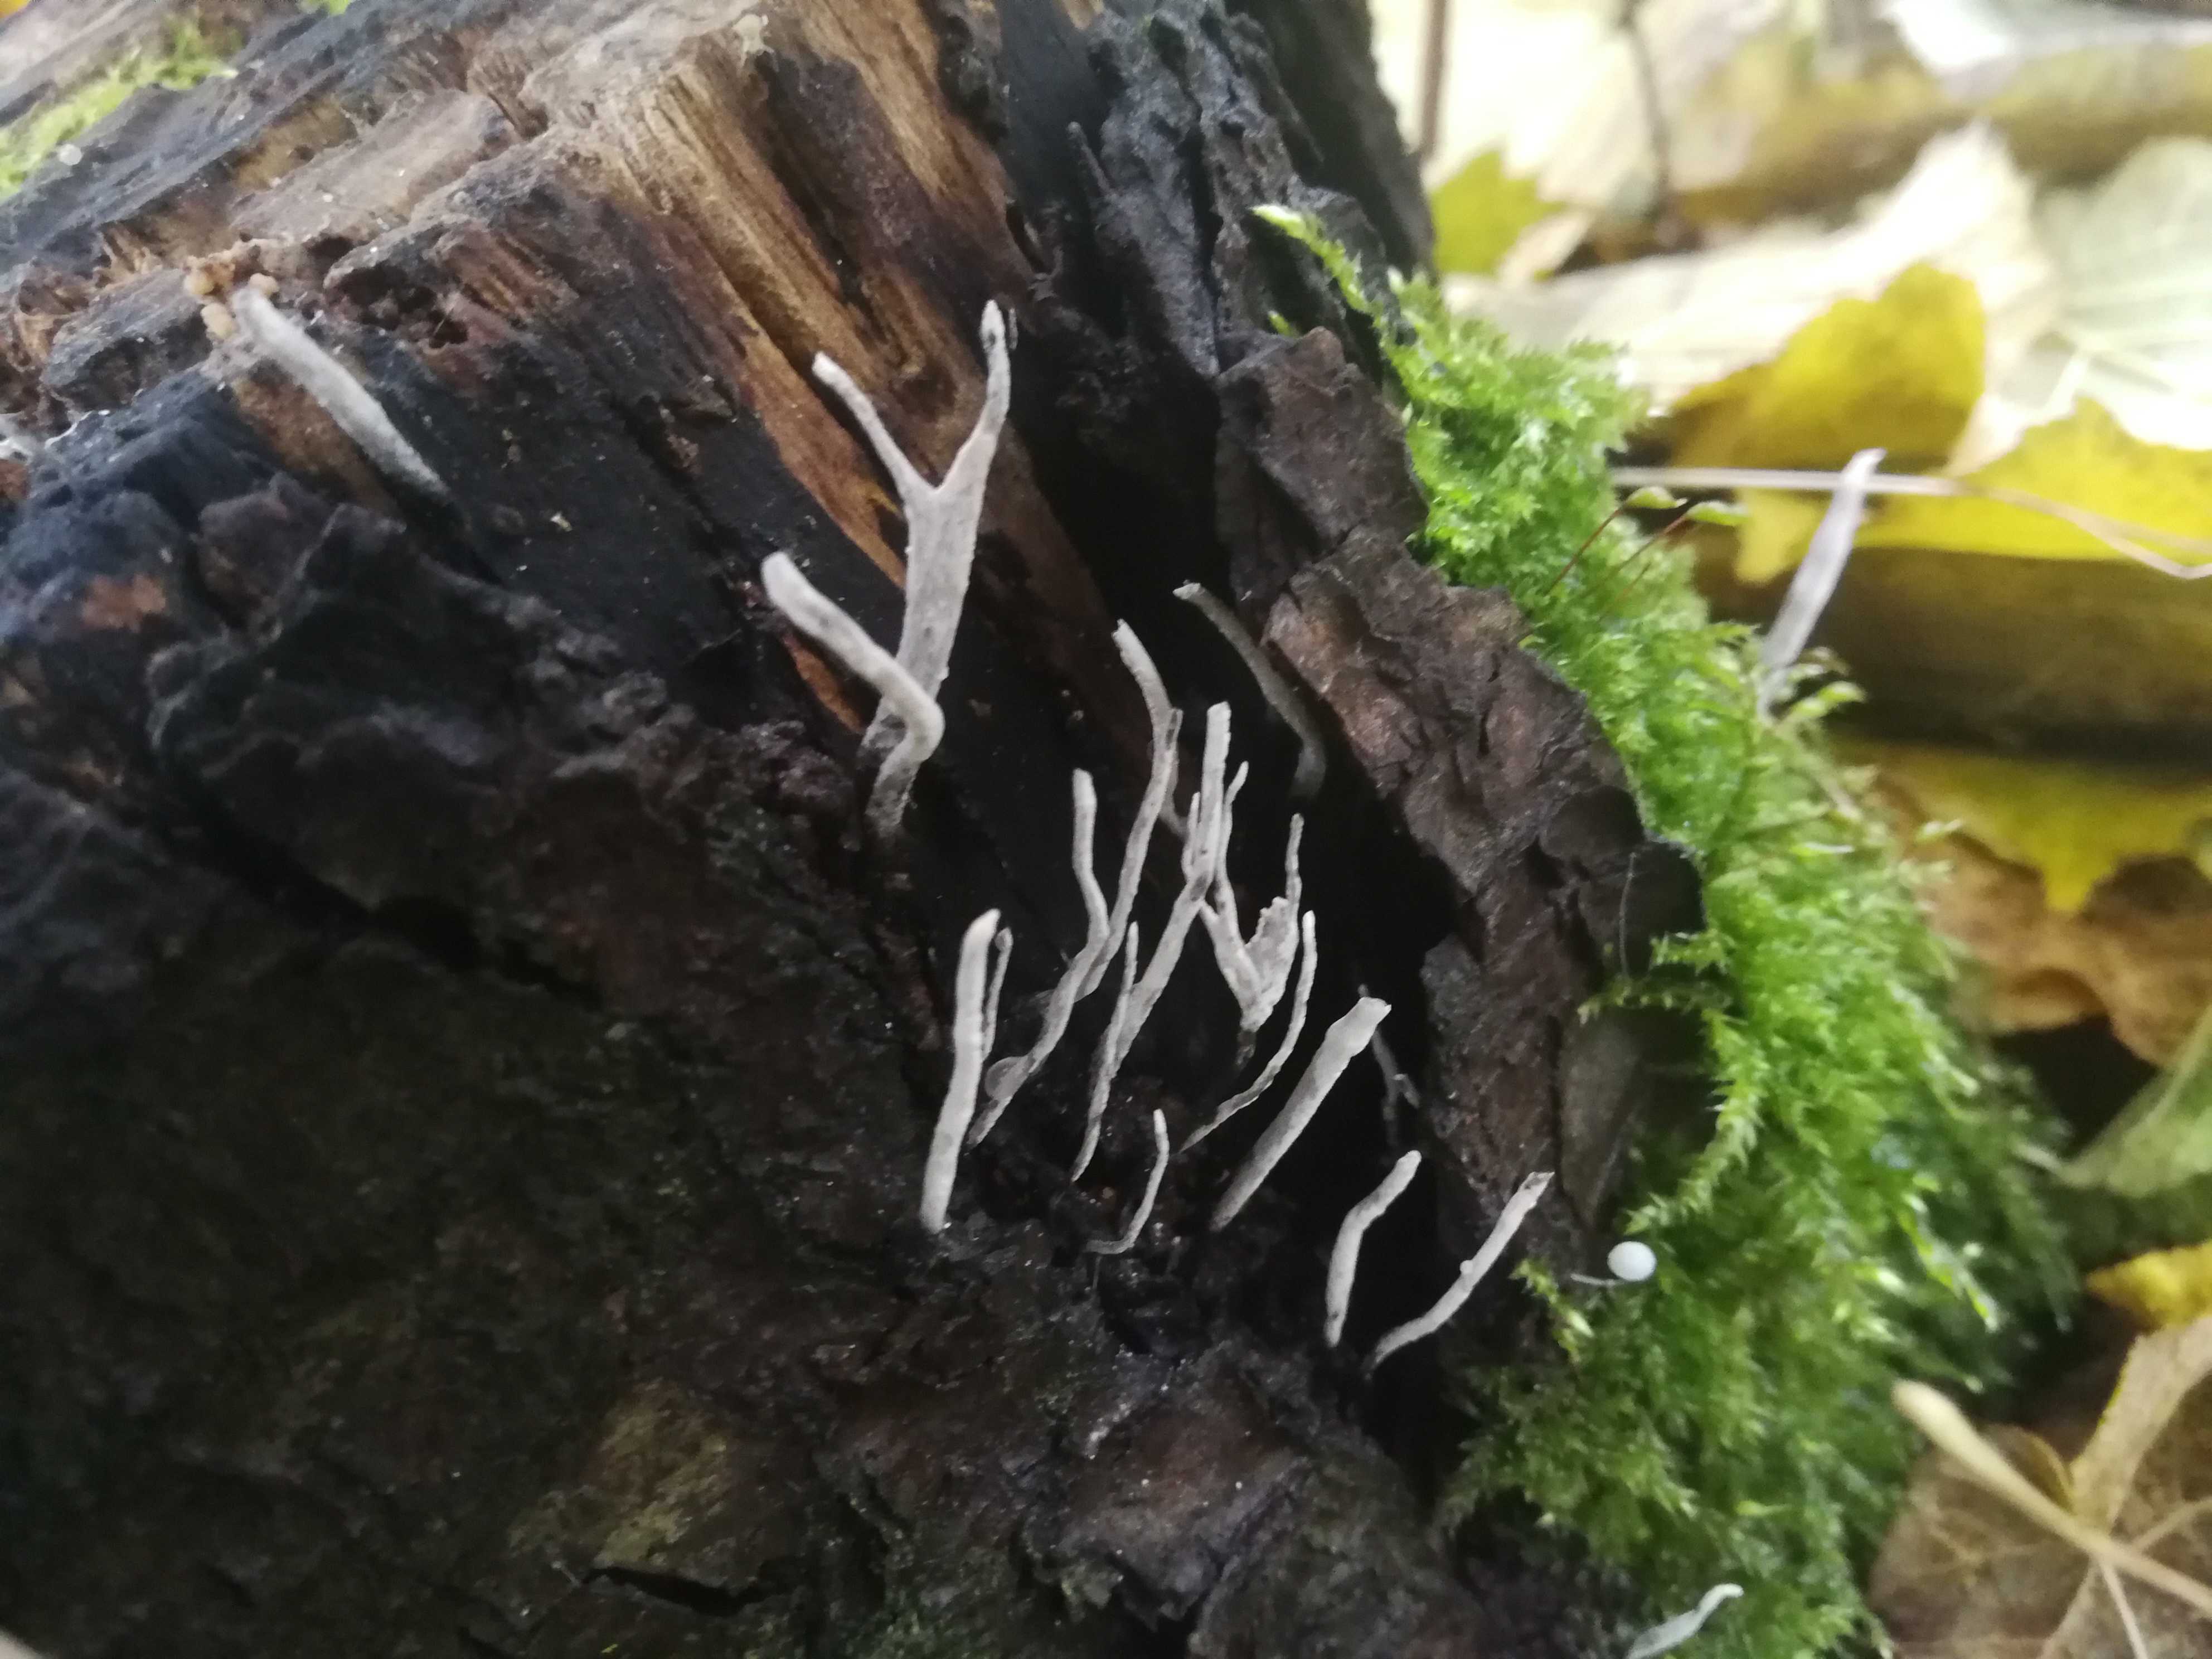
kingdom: Fungi
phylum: Ascomycota
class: Sordariomycetes
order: Xylariales
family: Xylariaceae
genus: Xylaria
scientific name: Xylaria hypoxylon
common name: grenet stødsvamp
